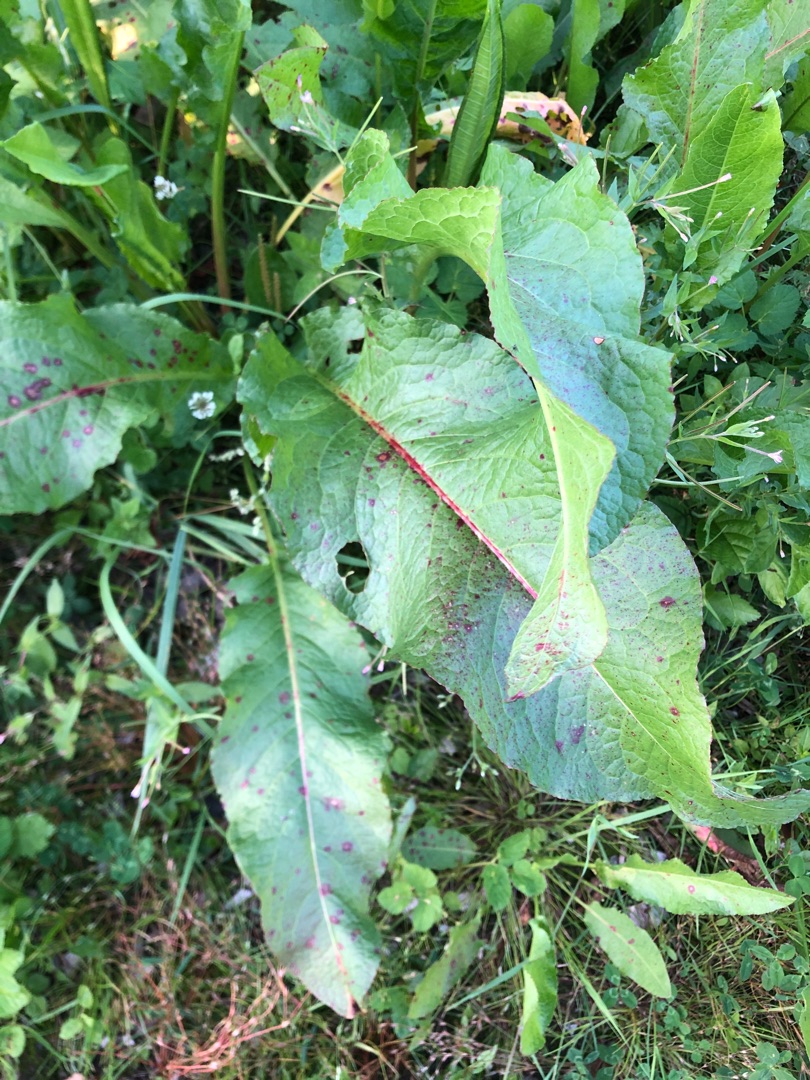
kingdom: Plantae
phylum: Tracheophyta
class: Magnoliopsida
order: Caryophyllales
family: Polygonaceae
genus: Rumex
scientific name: Rumex obtusifolius
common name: Butbladet skræppe
